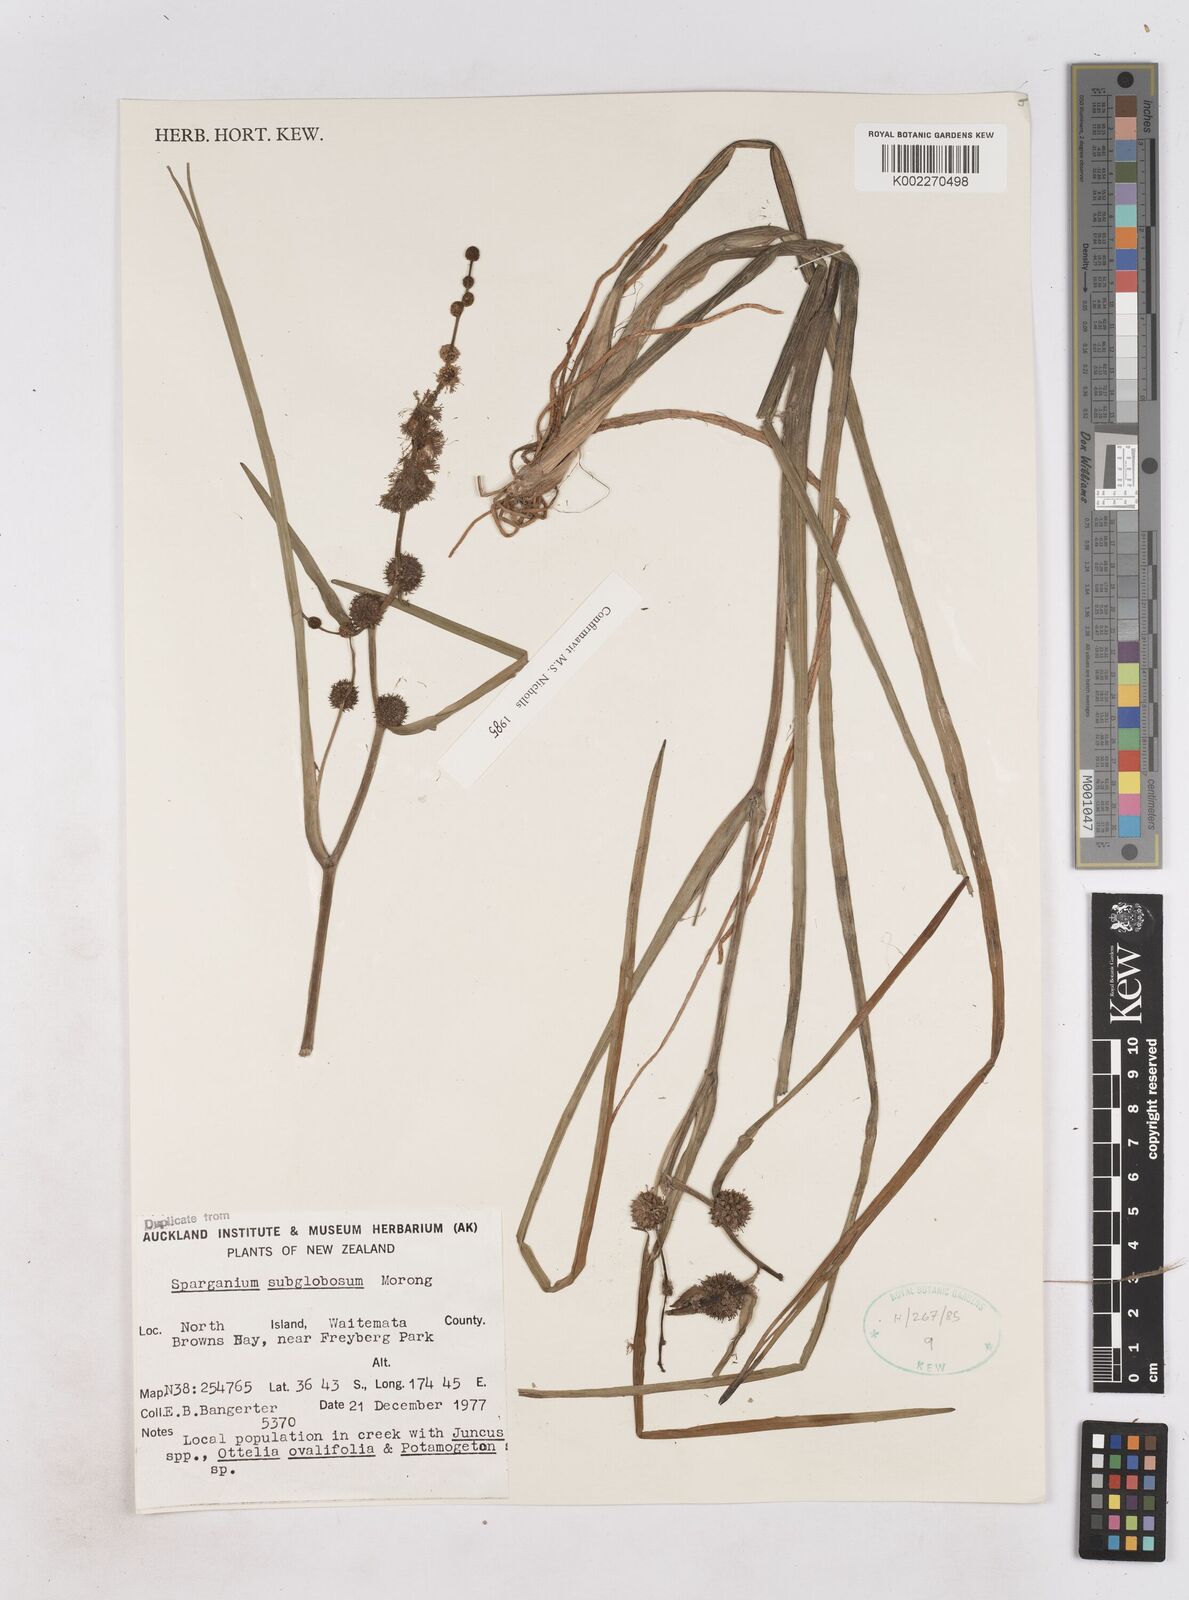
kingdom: Plantae
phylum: Tracheophyta
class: Liliopsida
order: Poales
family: Typhaceae
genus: Sparganium
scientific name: Sparganium subglobosum
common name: Burr­-reed
